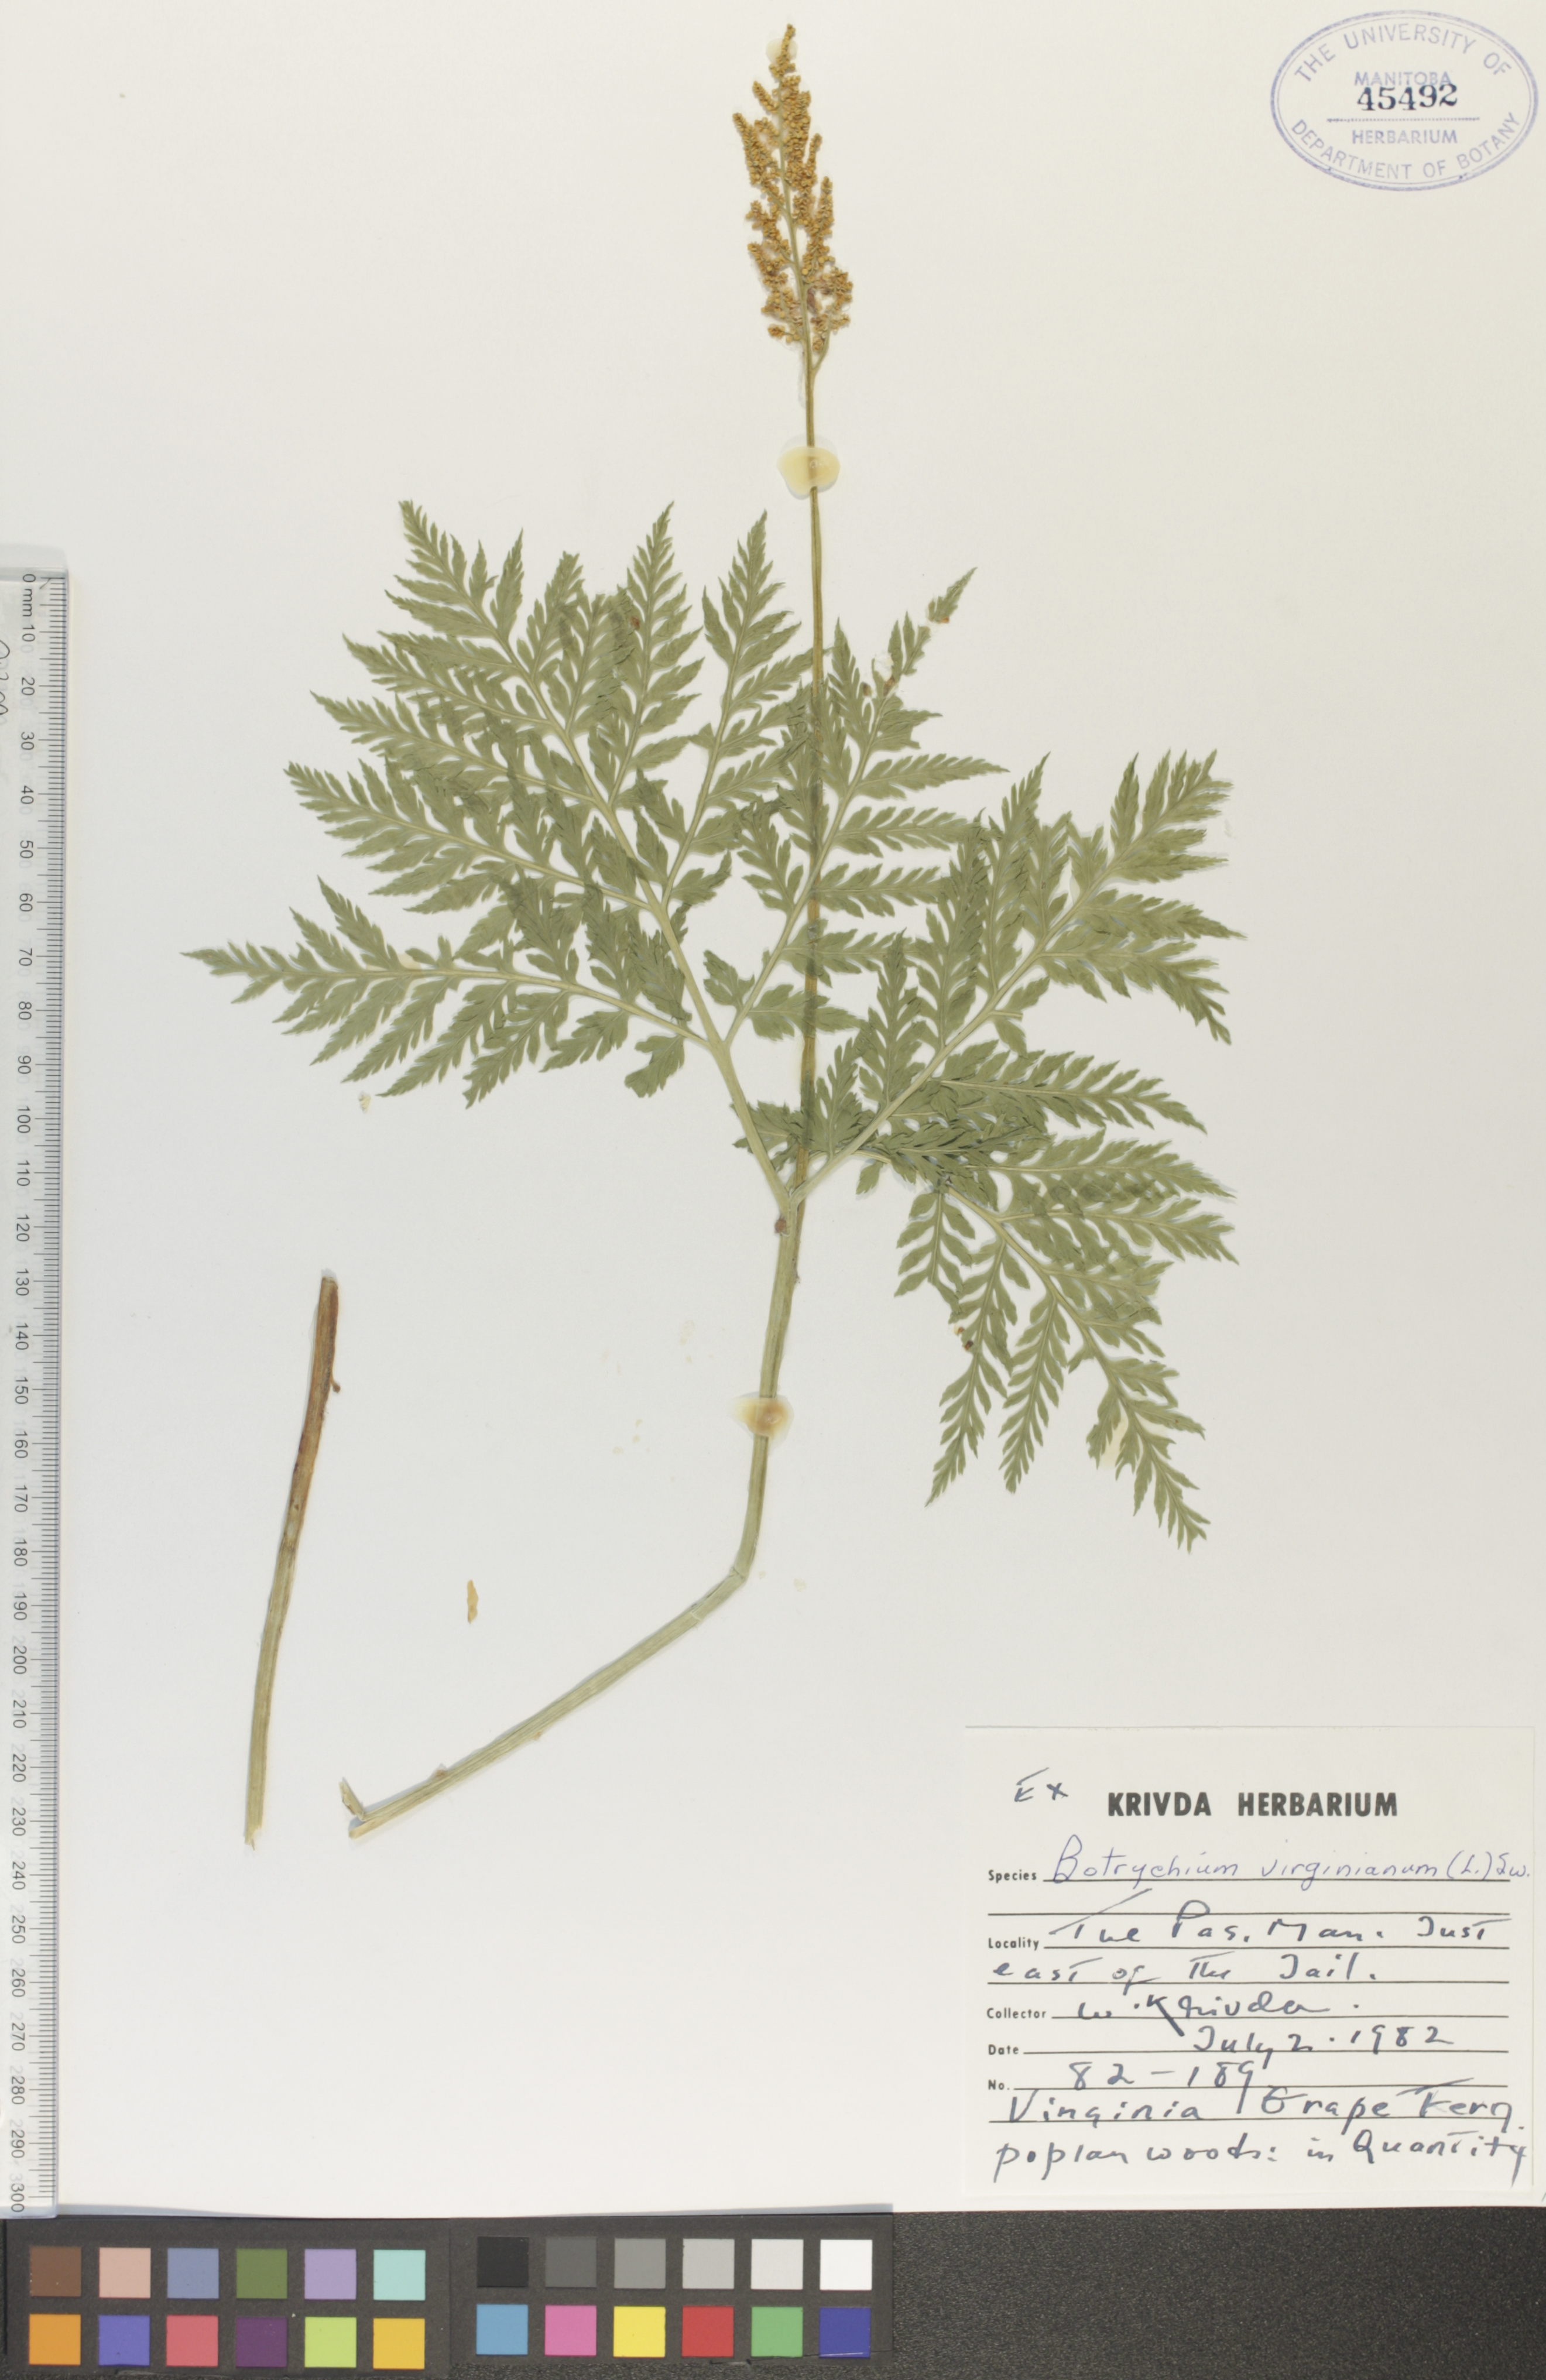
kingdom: Plantae
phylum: Tracheophyta
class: Polypodiopsida
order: Ophioglossales
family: Ophioglossaceae
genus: Botrypus
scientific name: Botrypus virginianus
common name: Common grapefern
